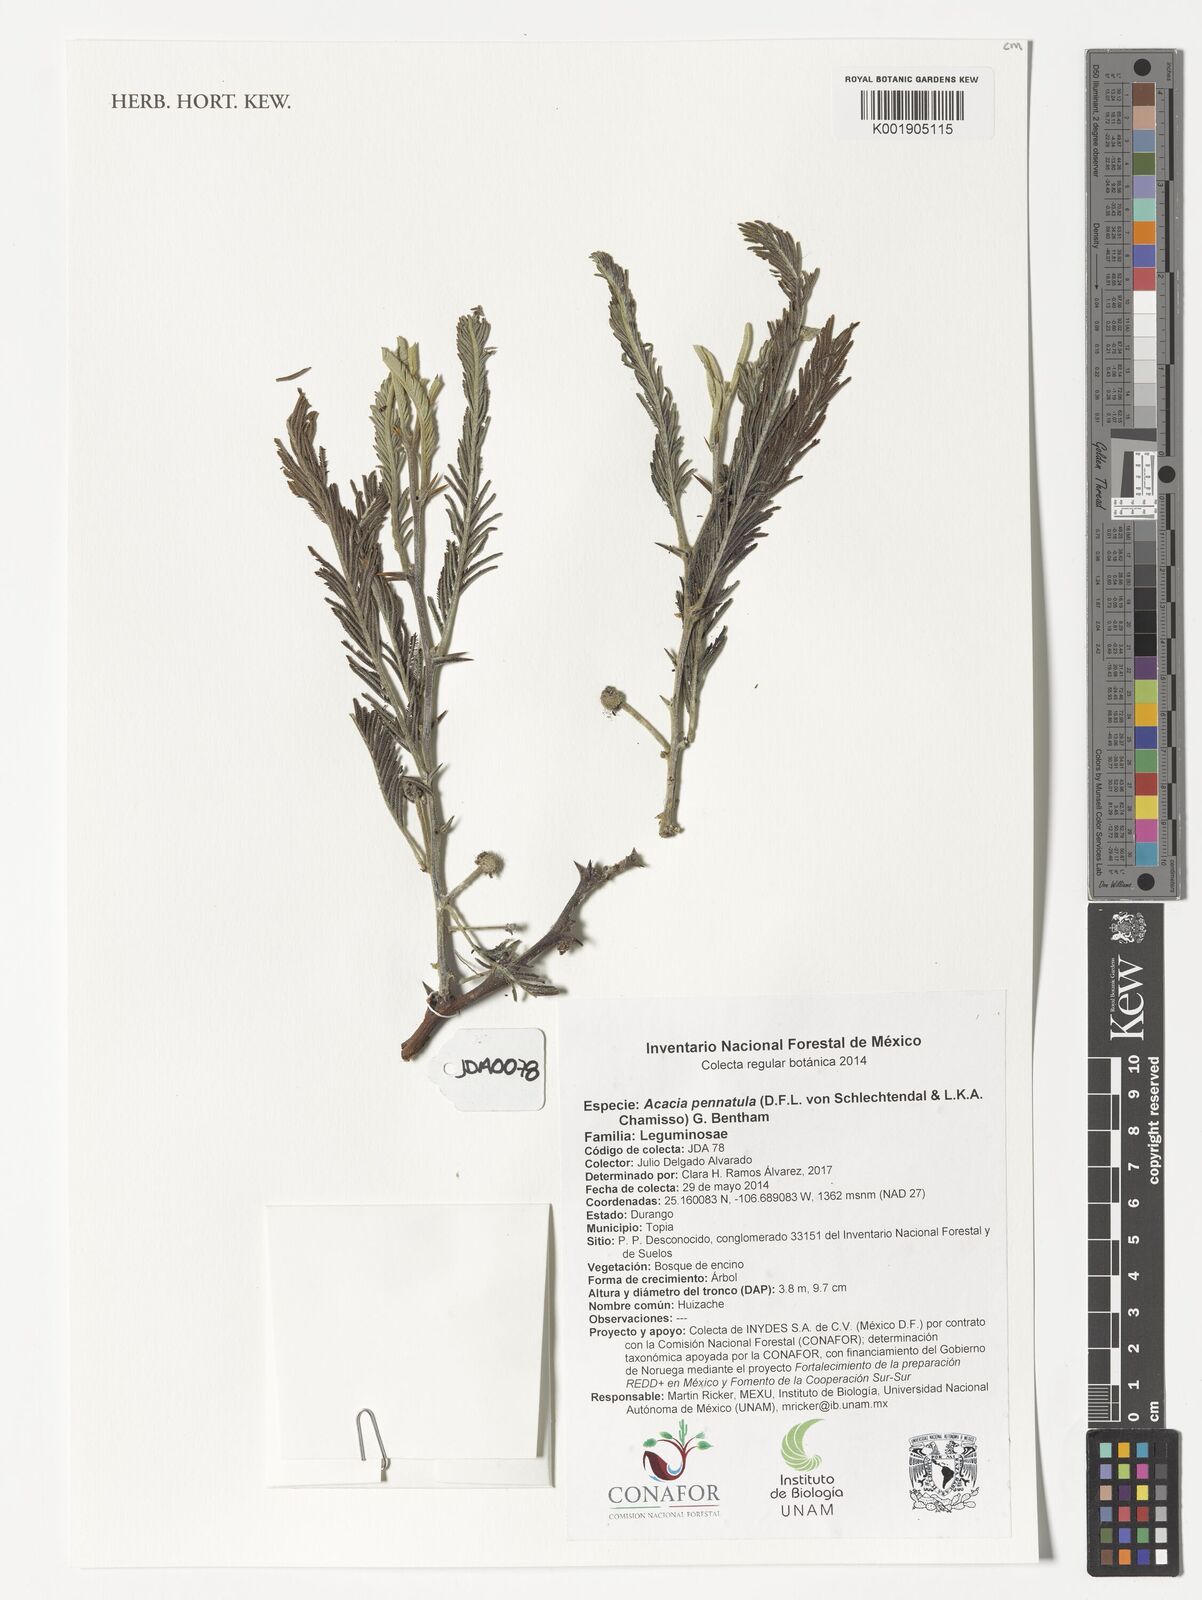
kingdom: Plantae
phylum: Tracheophyta
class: Magnoliopsida
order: Fabales
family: Fabaceae
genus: Vachellia
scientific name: Vachellia pennatula
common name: Fern-leaf acacia
